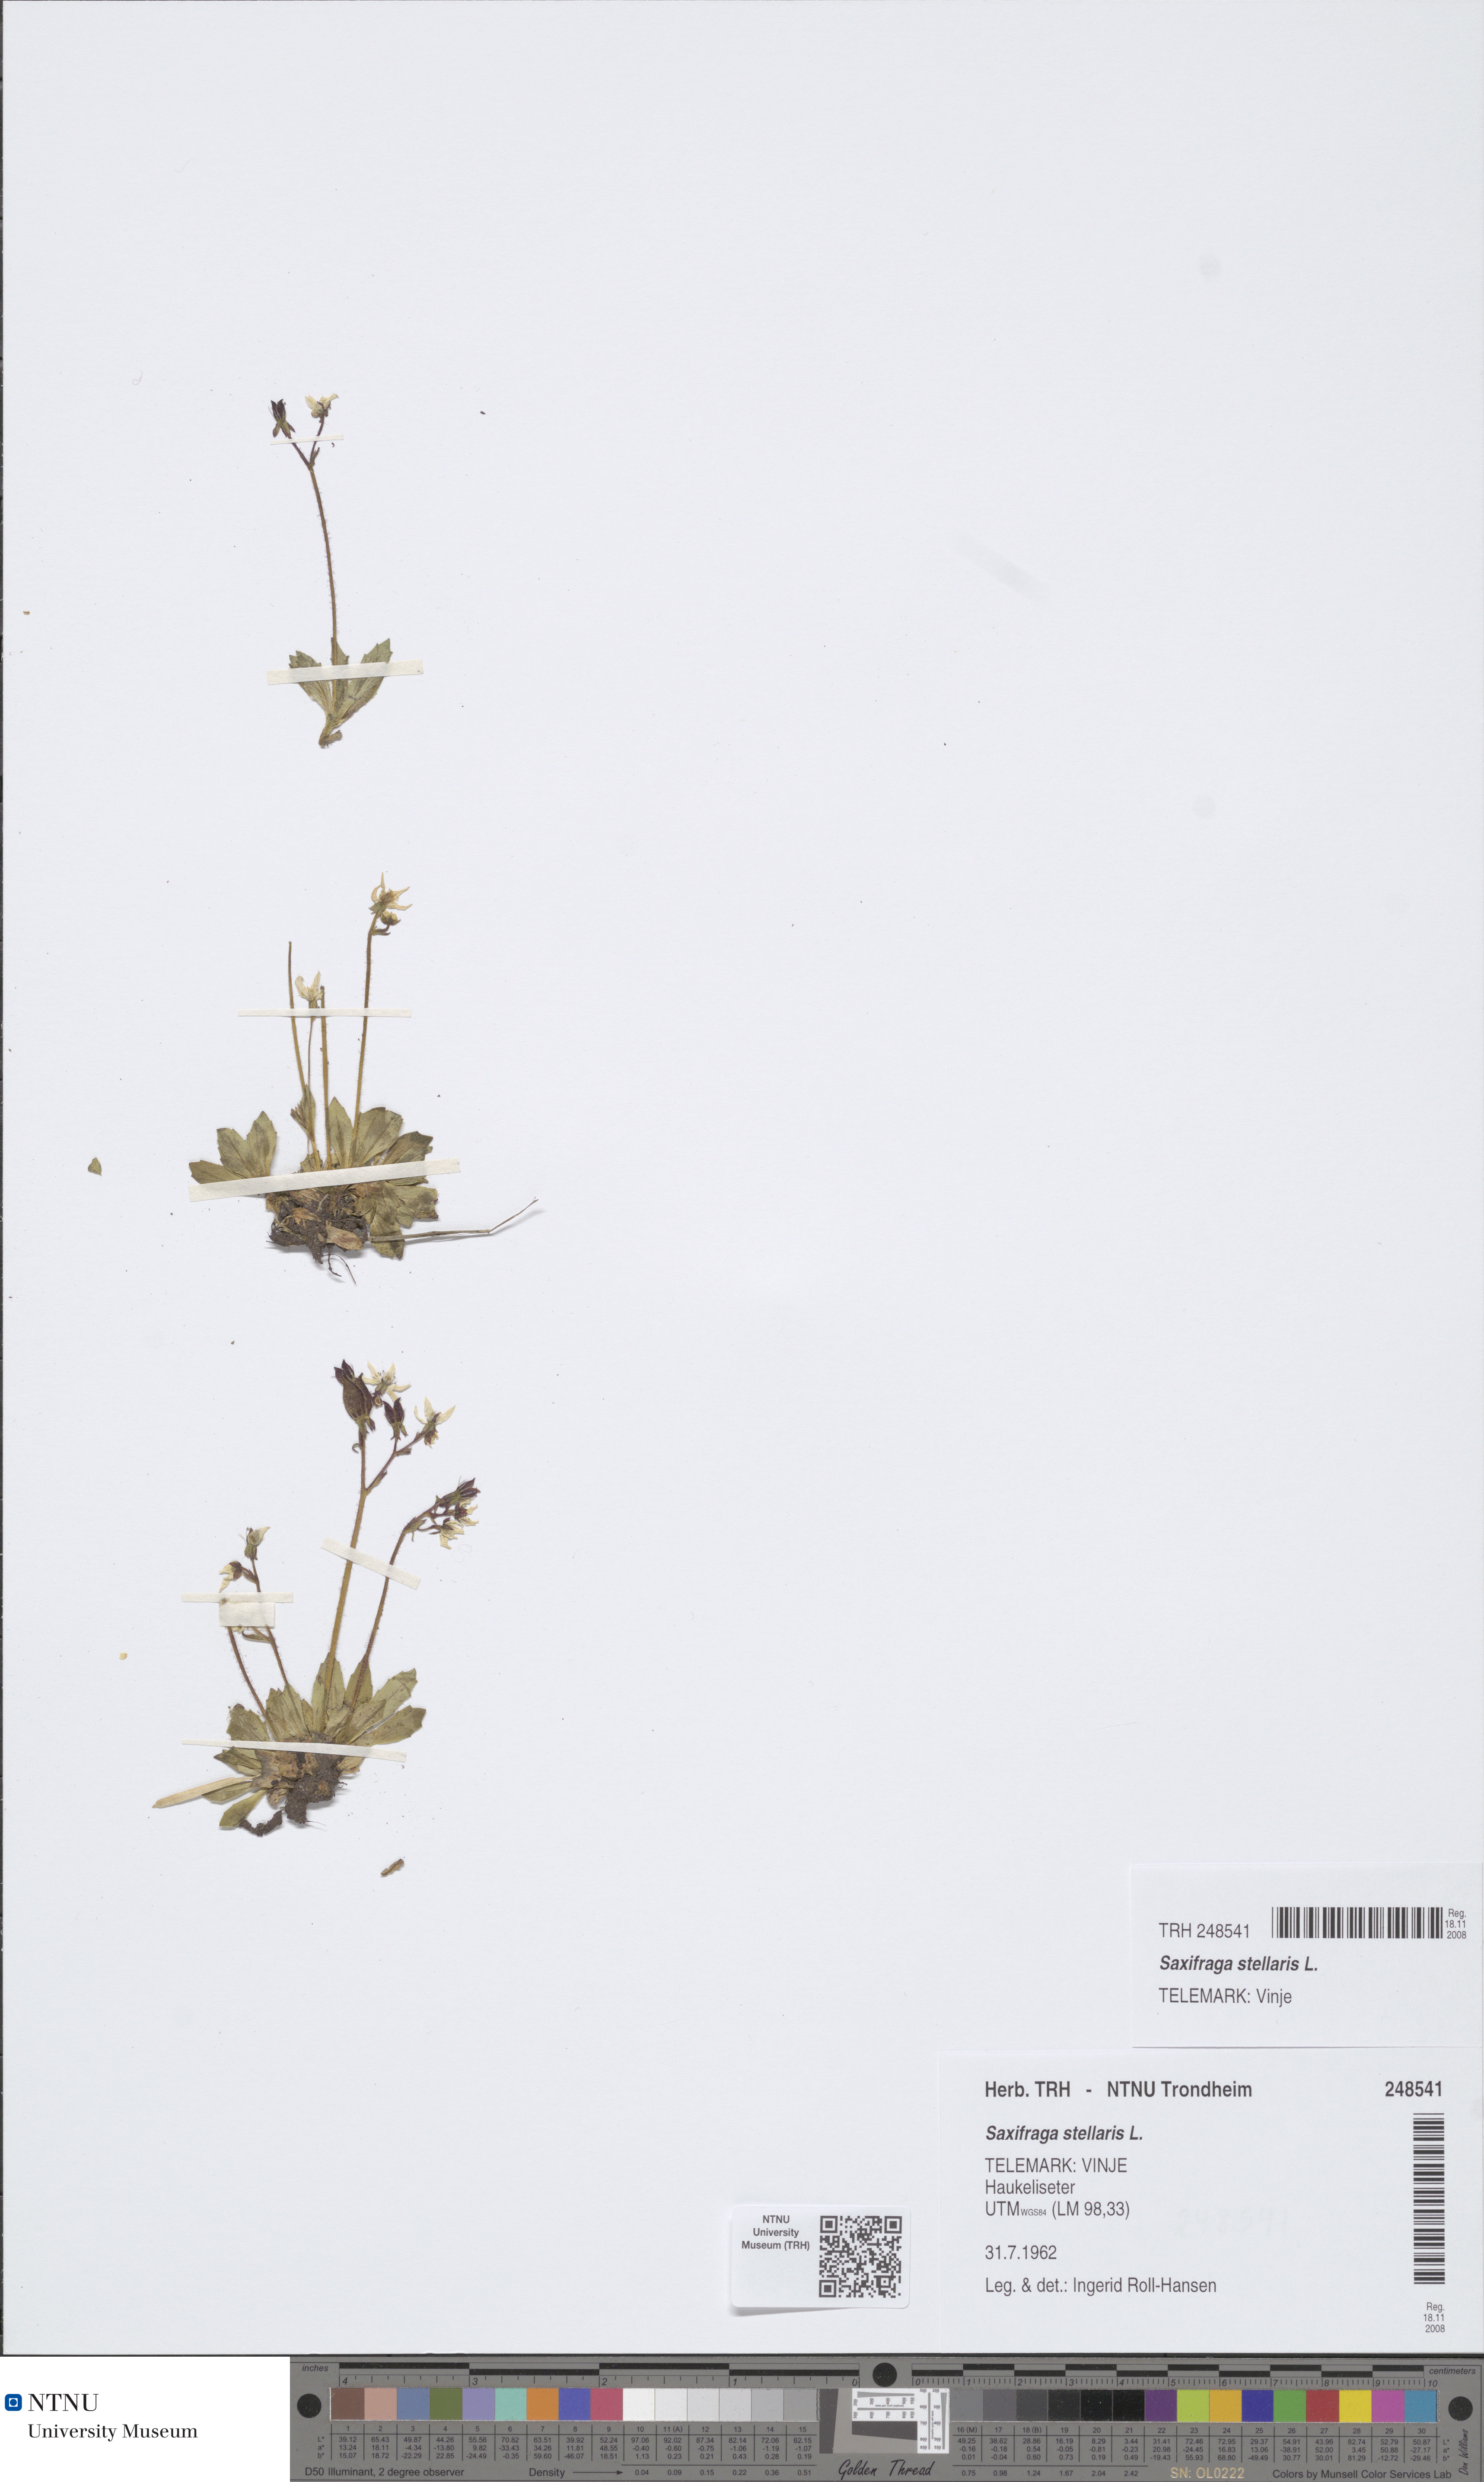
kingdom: Plantae
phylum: Tracheophyta
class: Magnoliopsida
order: Saxifragales
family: Saxifragaceae
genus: Micranthes
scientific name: Micranthes stellaris
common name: Starry saxifrage
